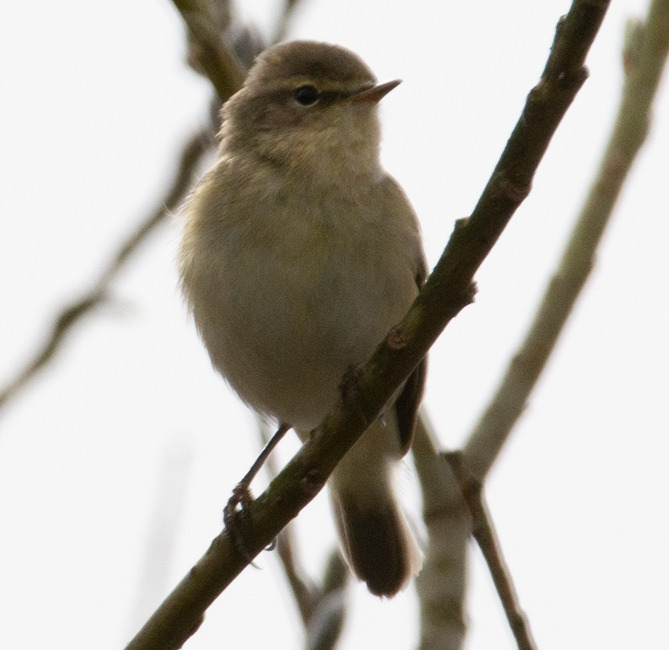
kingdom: Animalia
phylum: Chordata
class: Aves
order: Passeriformes
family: Phylloscopidae
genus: Phylloscopus
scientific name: Phylloscopus collybita
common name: Gransanger
